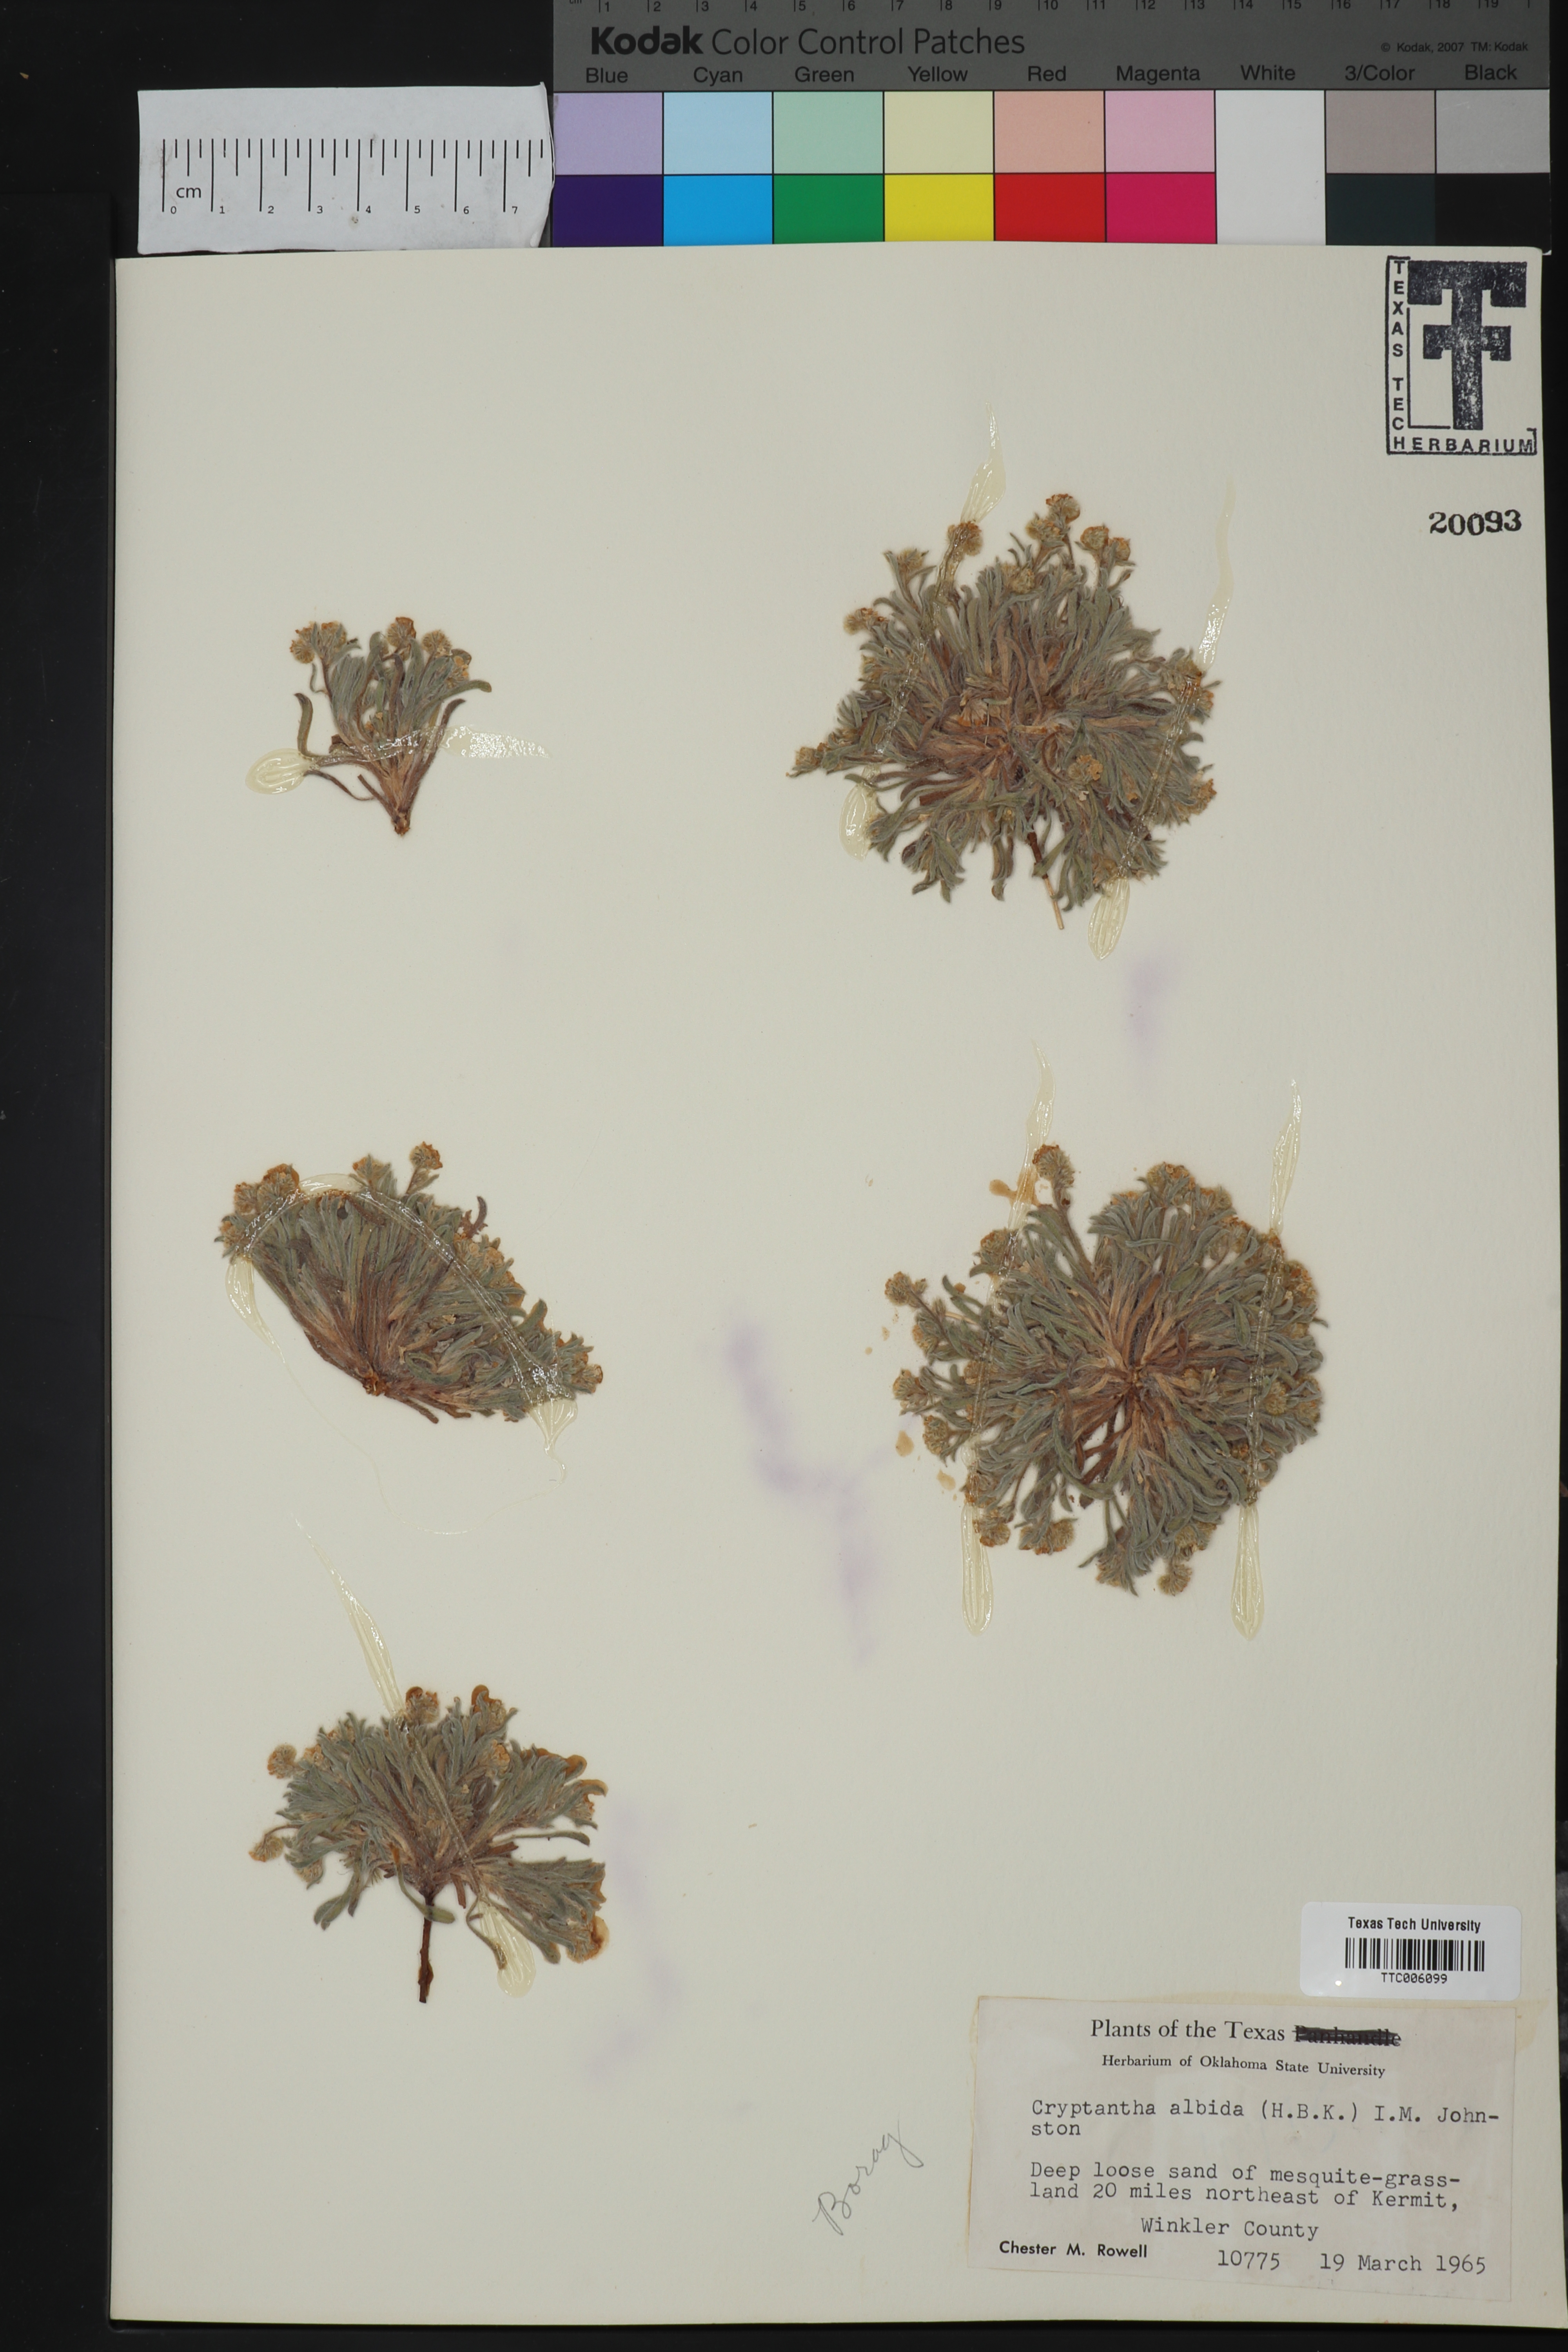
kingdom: Plantae
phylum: Tracheophyta
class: Magnoliopsida
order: Boraginales
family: Boraginaceae
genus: Johnstonella
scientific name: Johnstonella albida
